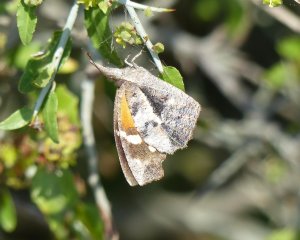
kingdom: Animalia
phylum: Arthropoda
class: Insecta
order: Lepidoptera
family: Nymphalidae
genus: Libytheana
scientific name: Libytheana carinenta
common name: American Snout
